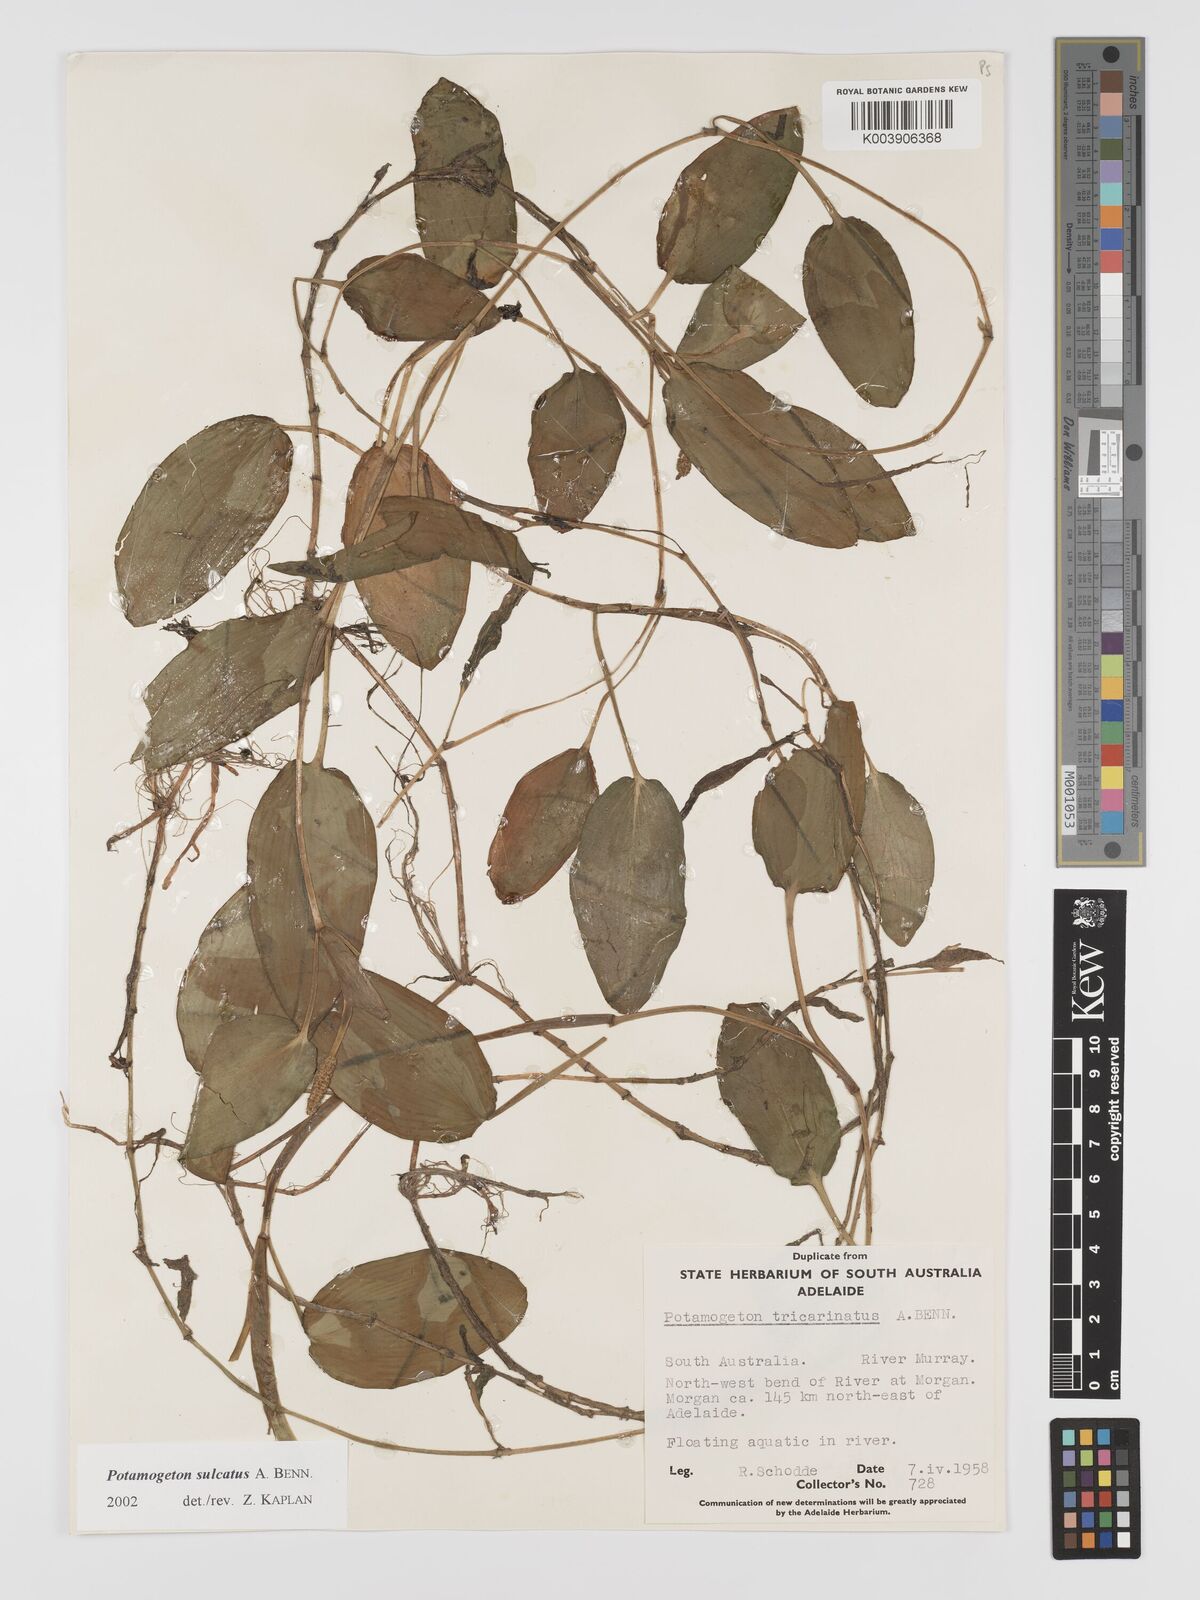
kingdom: Plantae
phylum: Tracheophyta
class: Liliopsida
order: Alismatales
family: Potamogetonaceae
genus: Potamogeton
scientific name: Potamogeton sulcatus
